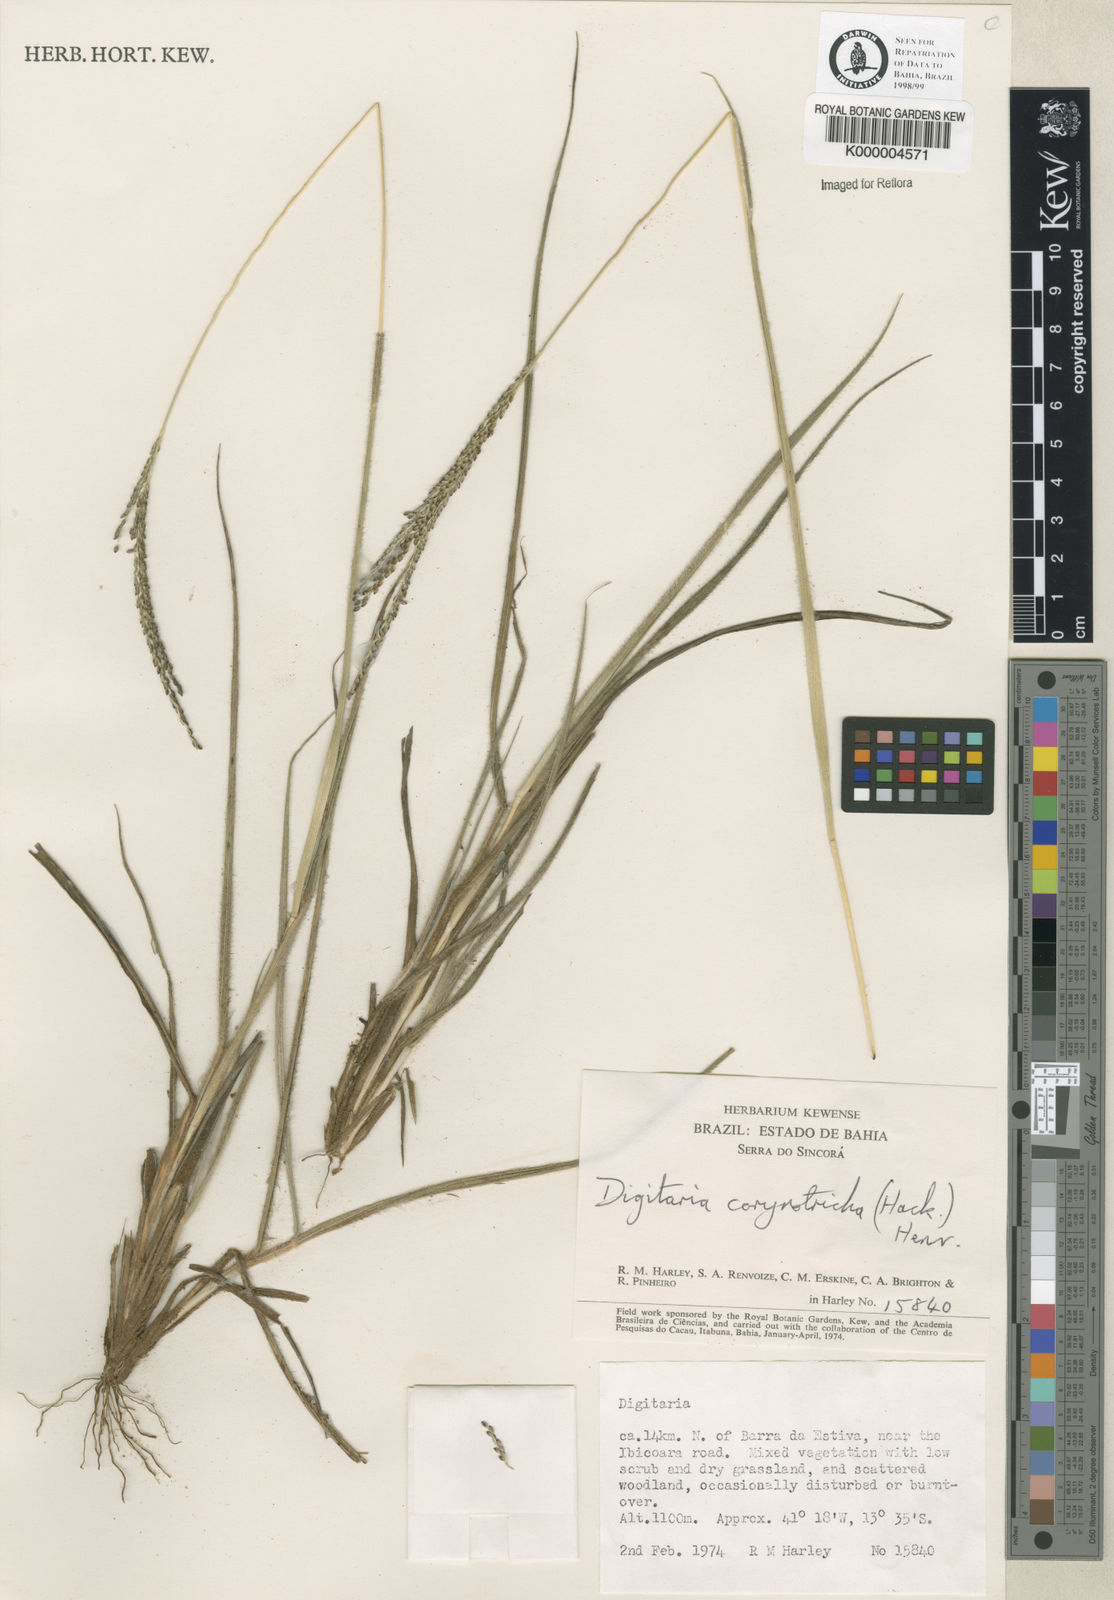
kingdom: Plantae
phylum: Tracheophyta
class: Liliopsida
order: Poales
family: Poaceae
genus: Digitaria
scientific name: Digitaria corynotricha
